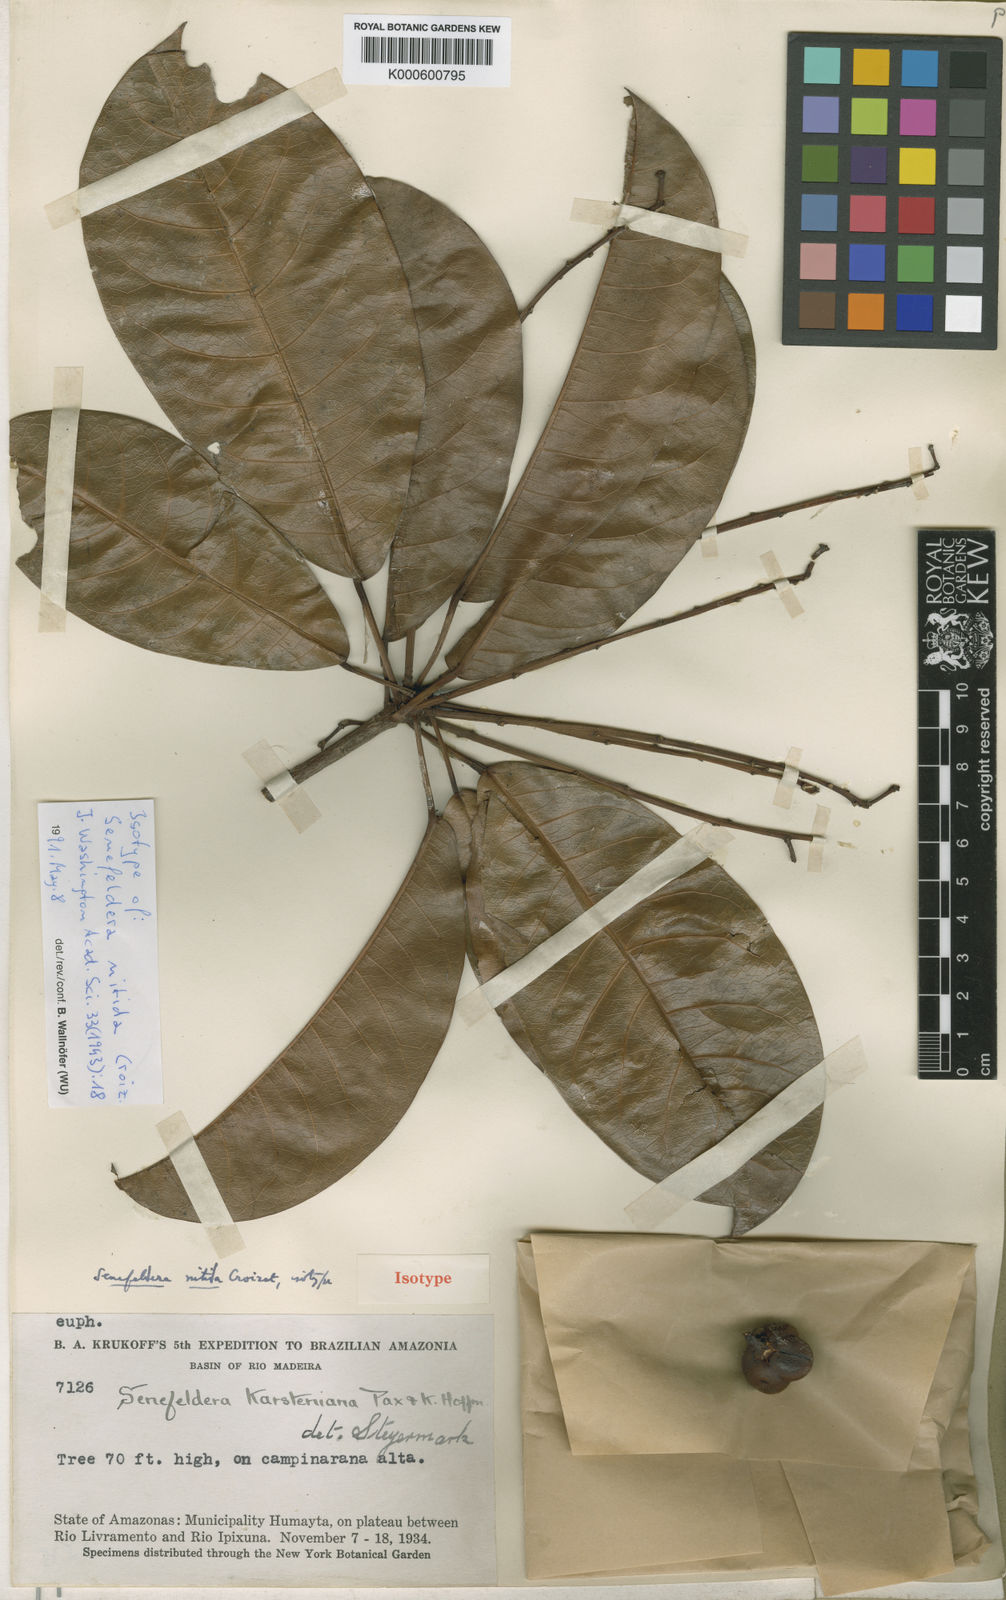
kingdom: Plantae
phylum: Tracheophyta
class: Magnoliopsida
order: Malpighiales
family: Euphorbiaceae
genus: Pseudosenefeldera
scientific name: Pseudosenefeldera inclinata
